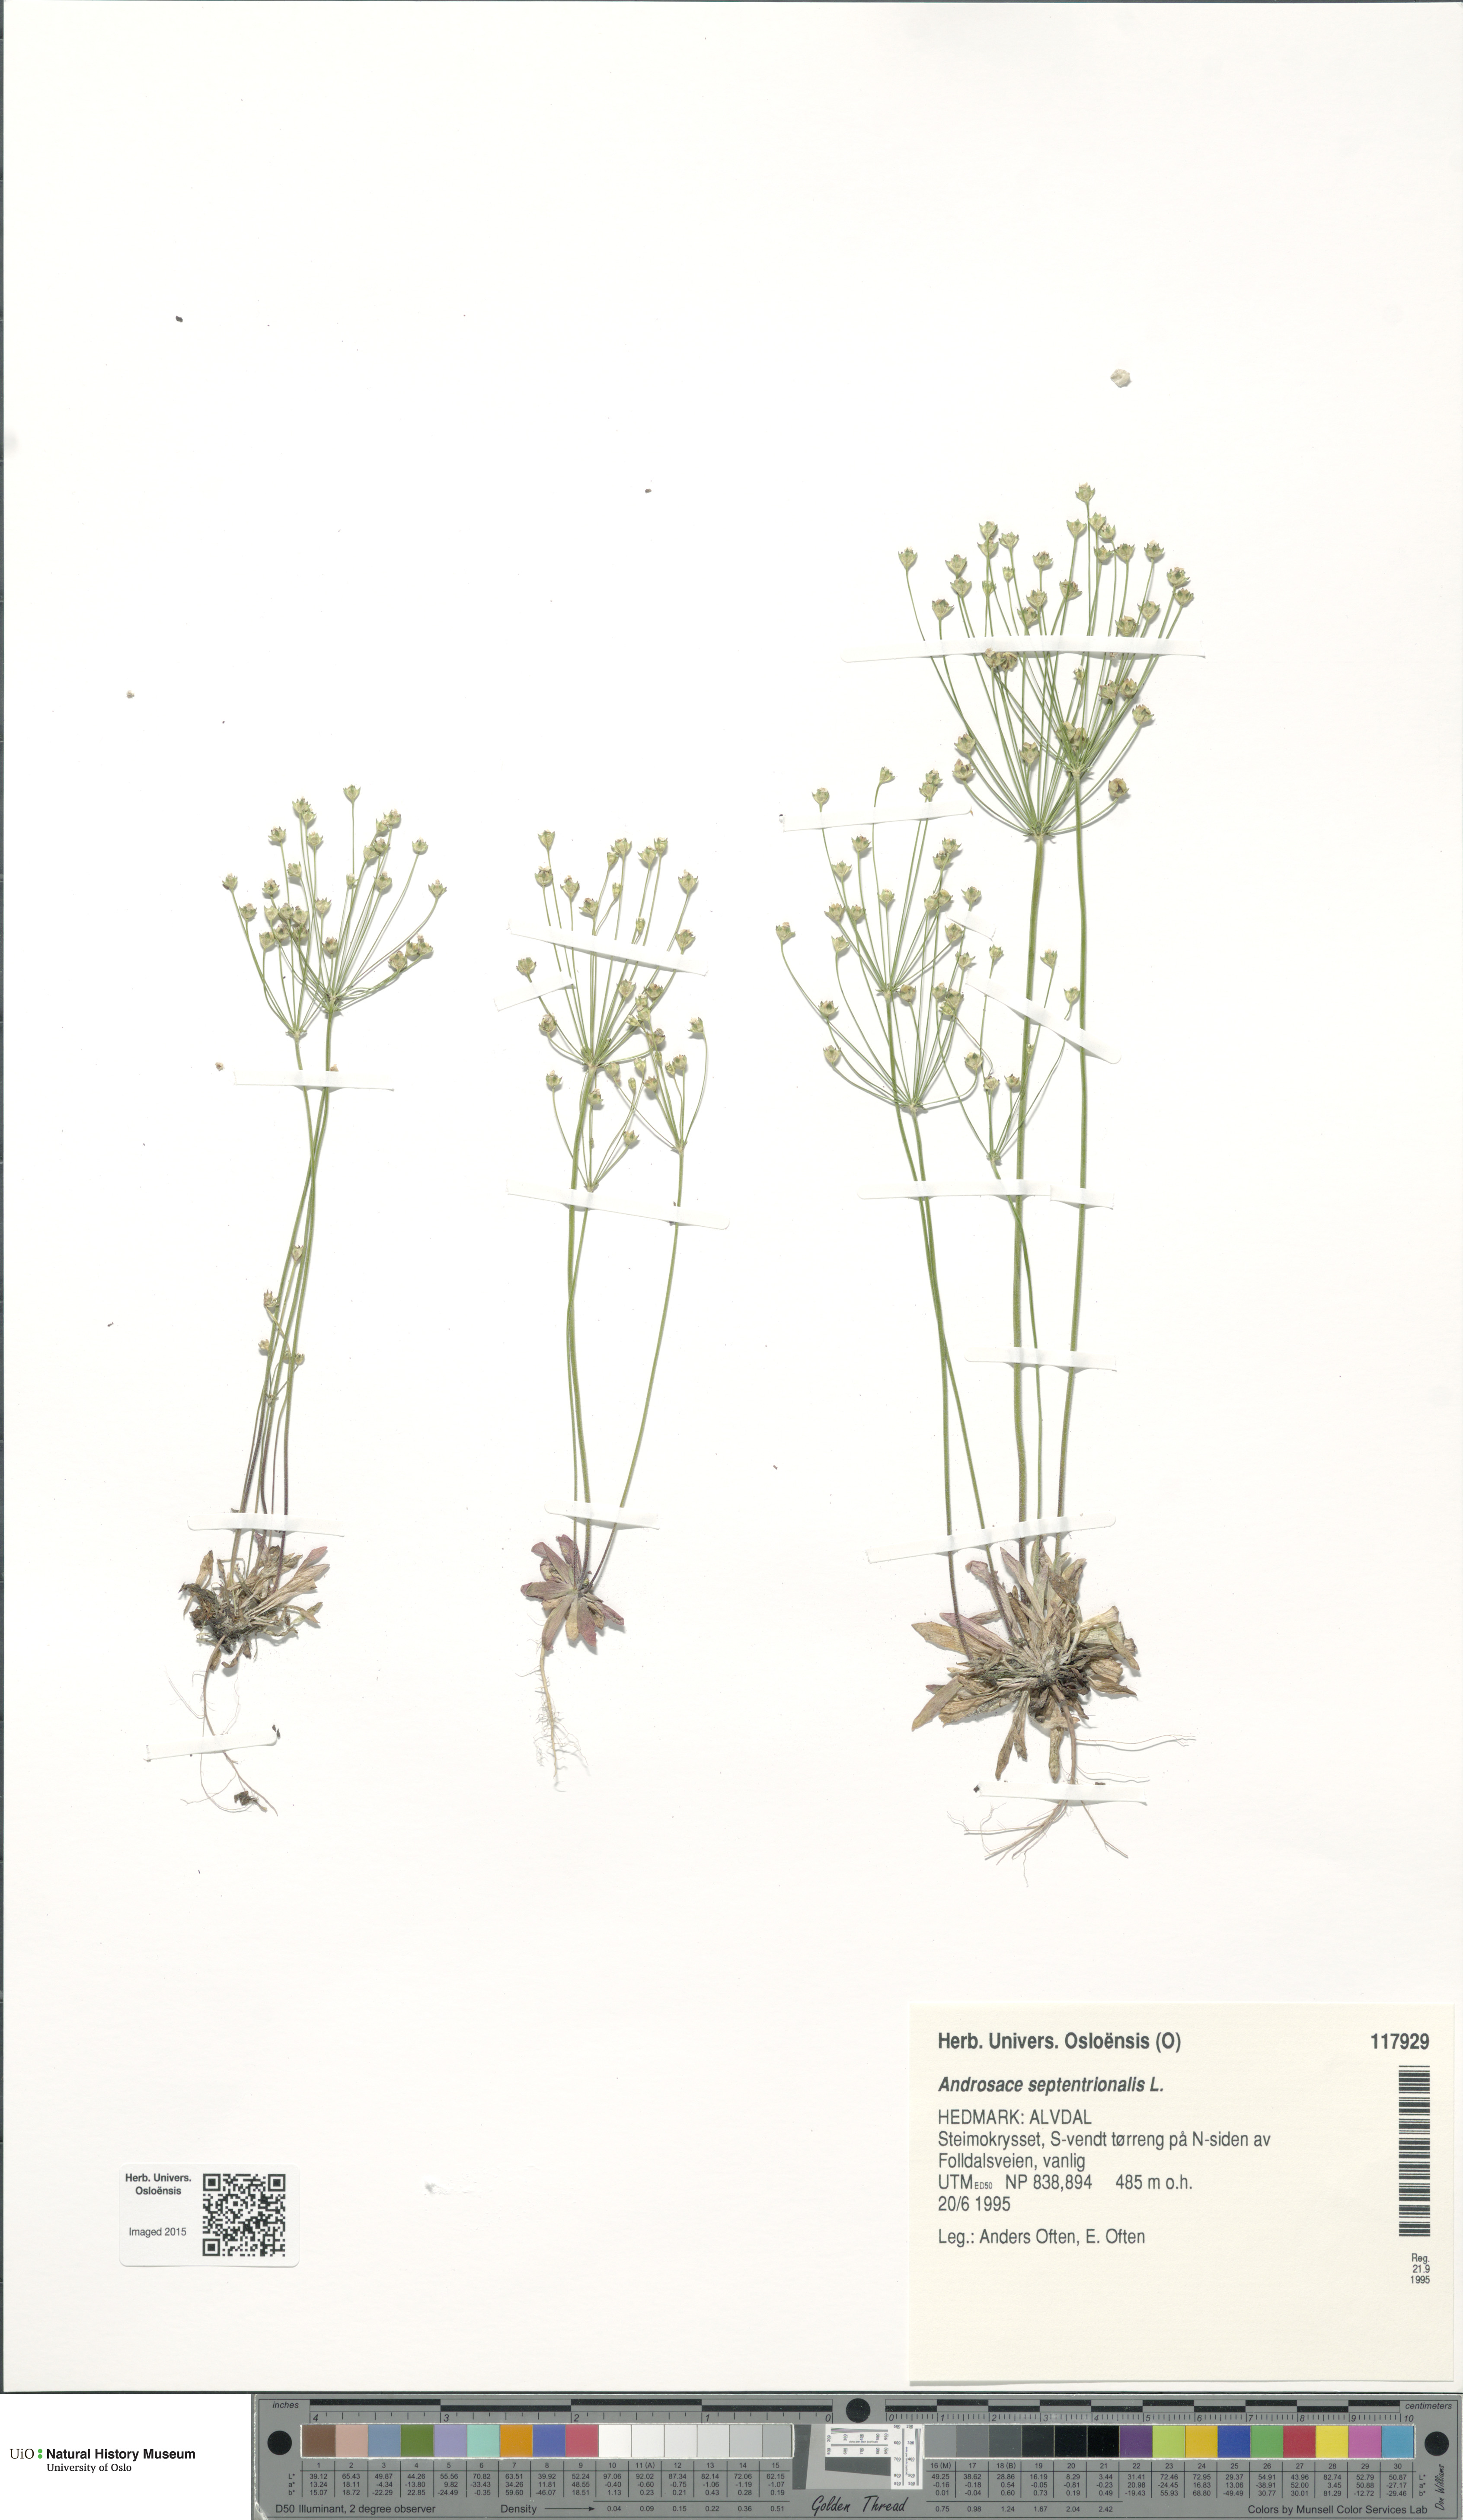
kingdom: Plantae
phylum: Tracheophyta
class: Magnoliopsida
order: Ericales
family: Primulaceae
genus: Androsace
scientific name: Androsace septentrionalis
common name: Hairy northern fairy-candelabra
